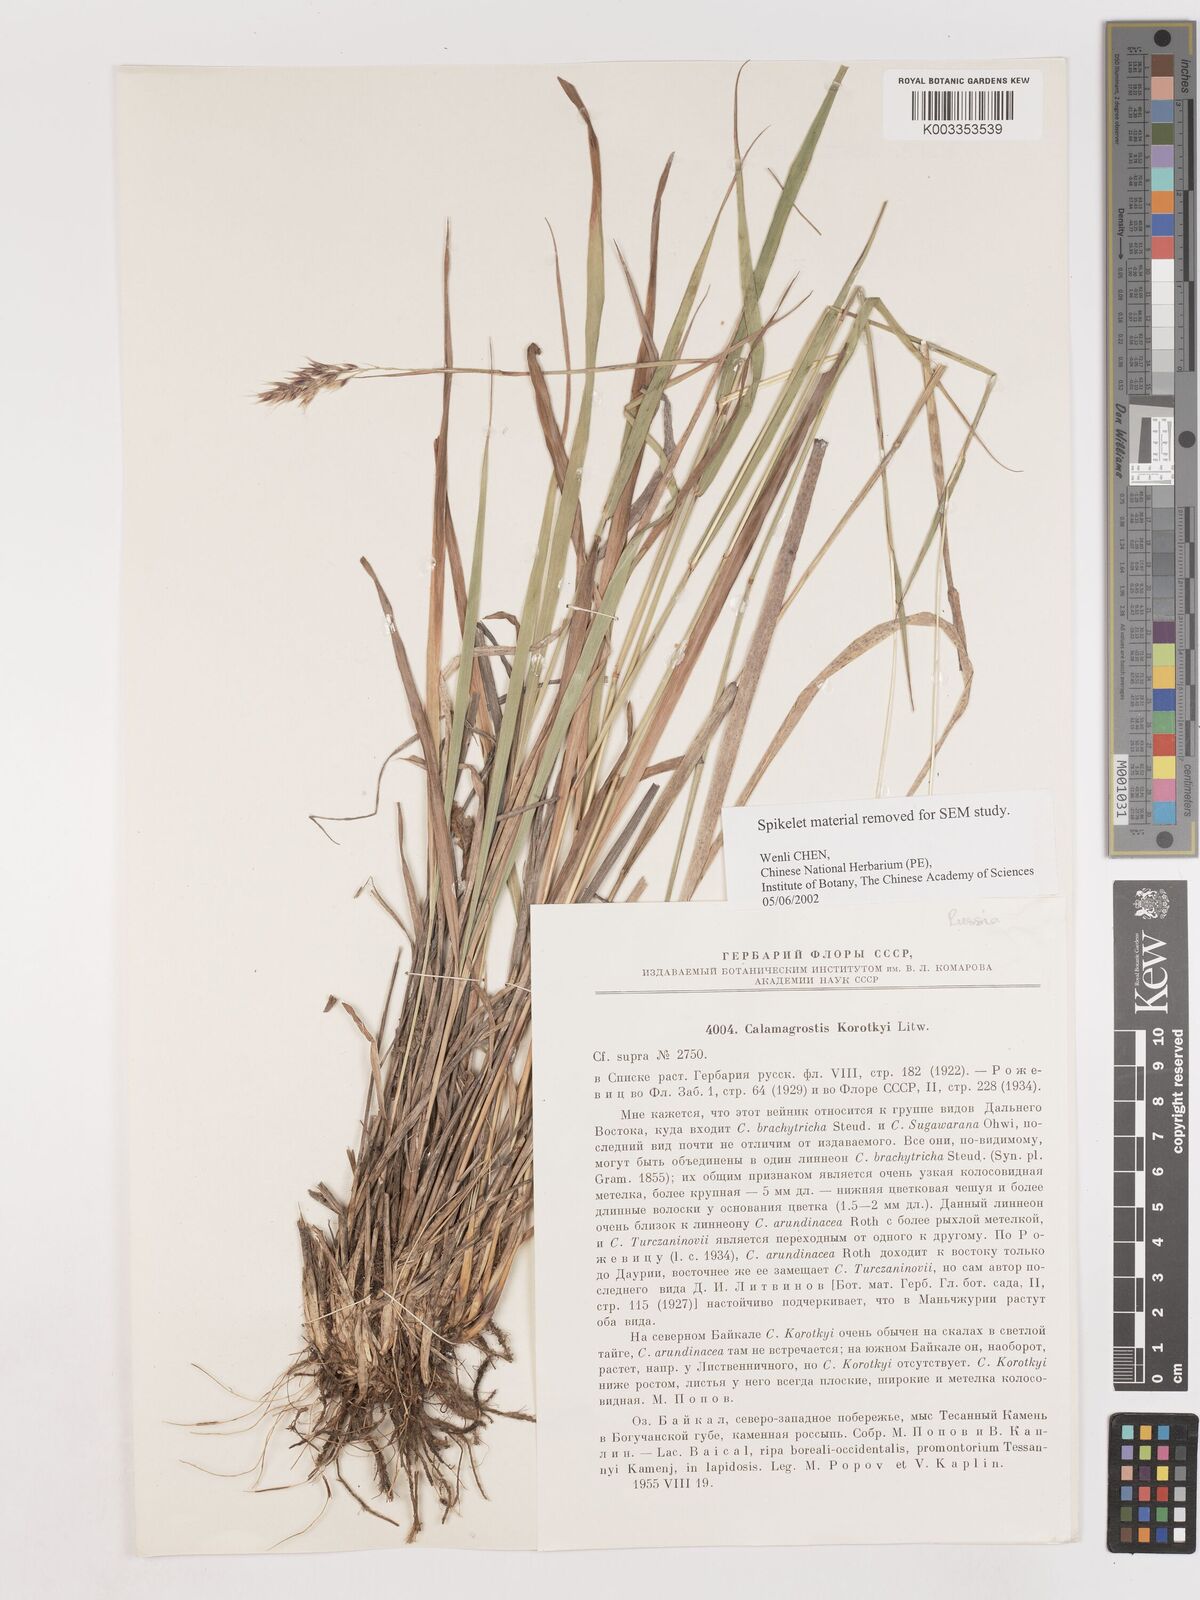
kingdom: Plantae
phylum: Tracheophyta
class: Liliopsida
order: Poales
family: Poaceae
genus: Calamagrostis
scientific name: Calamagrostis korotkyi
